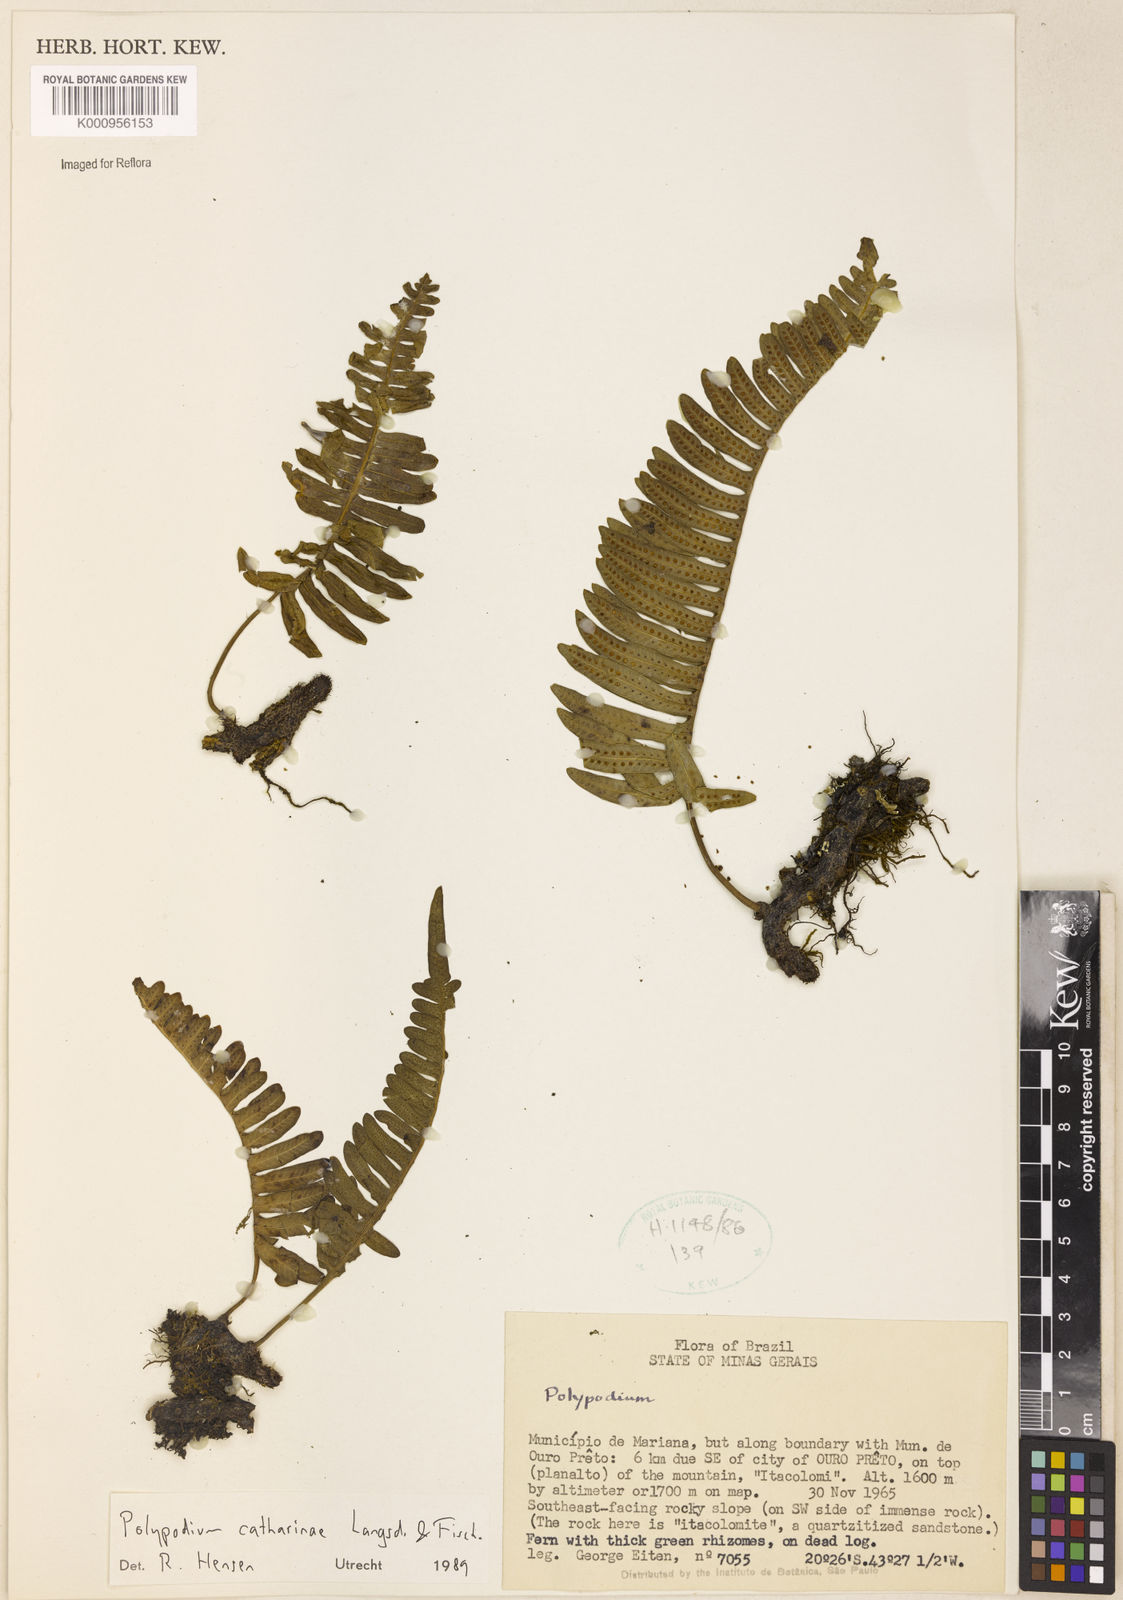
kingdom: Plantae
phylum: Tracheophyta
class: Polypodiopsida
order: Polypodiales
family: Polypodiaceae
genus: Serpocaulon
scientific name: Serpocaulon catharinae
